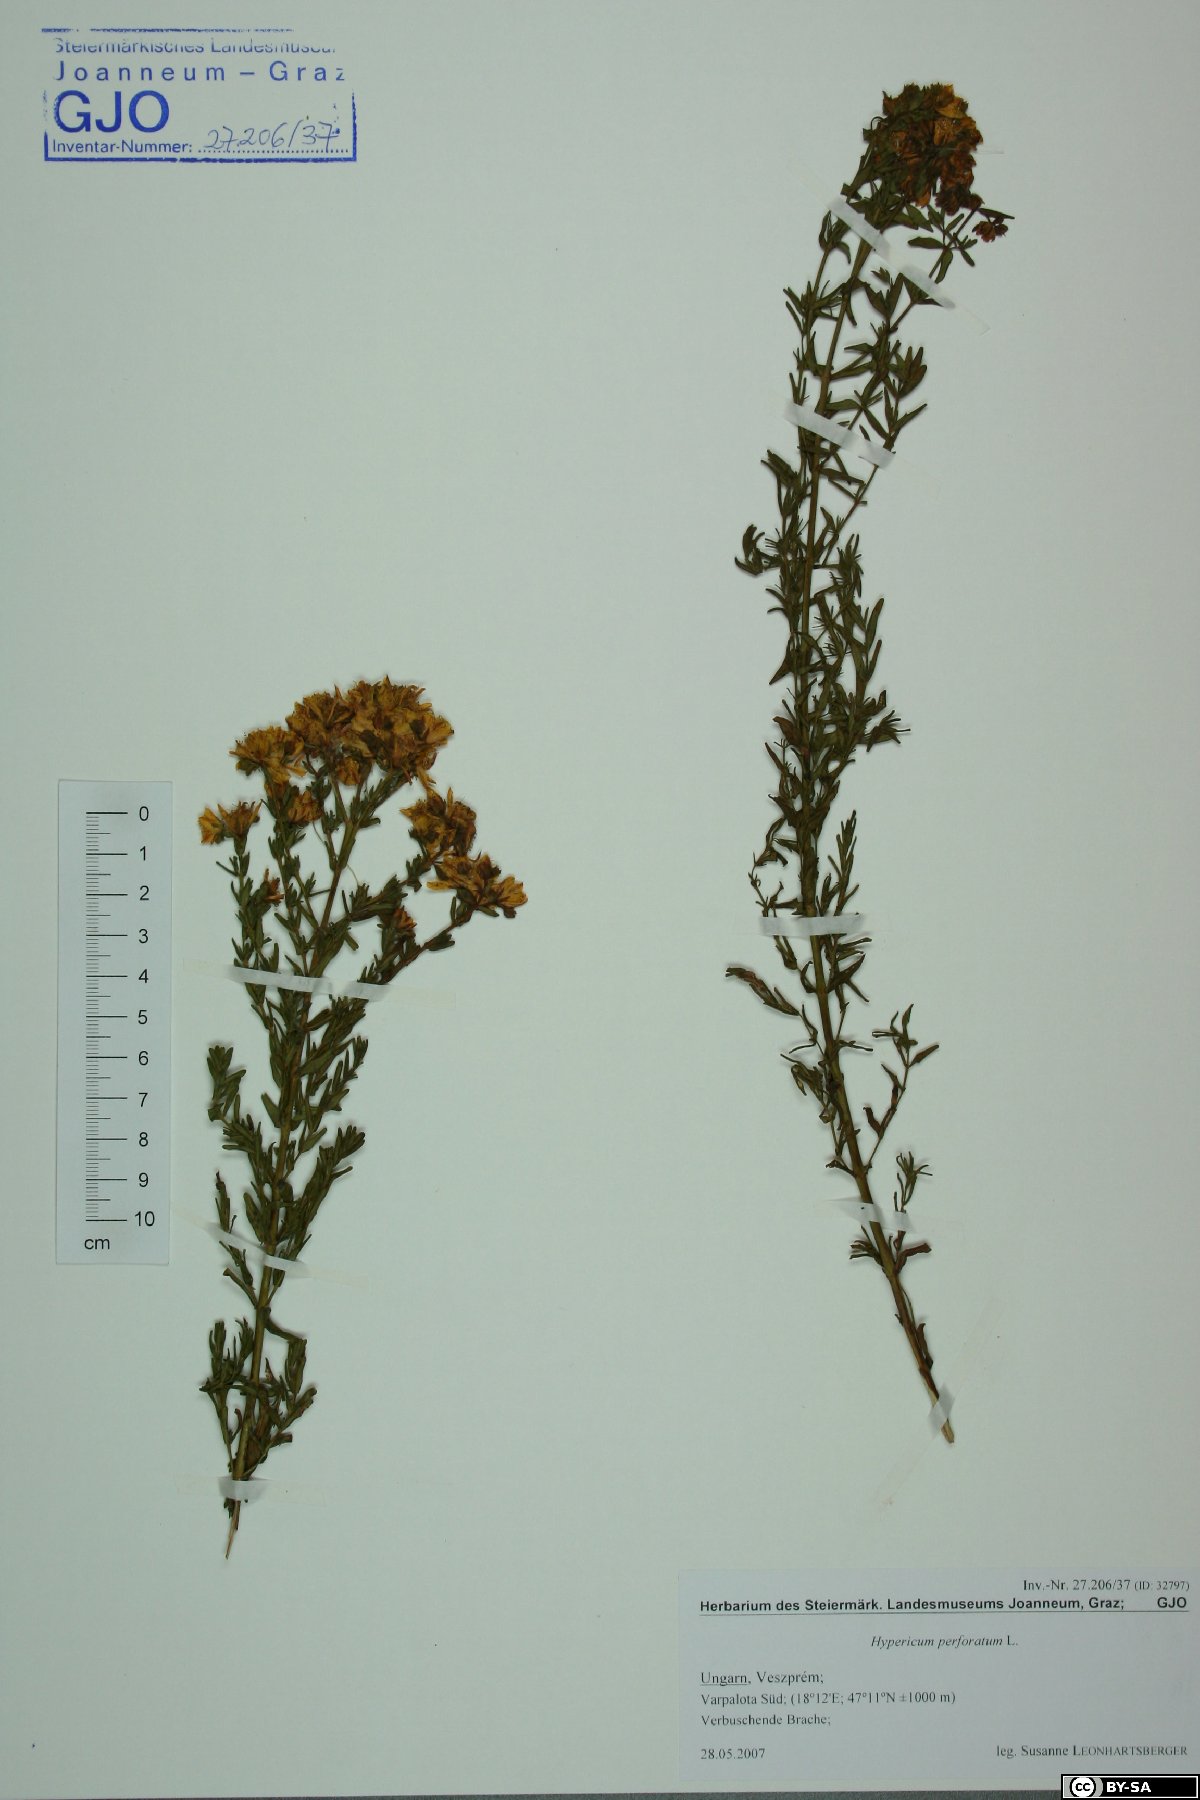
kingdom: Plantae
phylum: Tracheophyta
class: Magnoliopsida
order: Malpighiales
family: Hypericaceae
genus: Hypericum
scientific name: Hypericum perforatum
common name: Common st. johnswort
